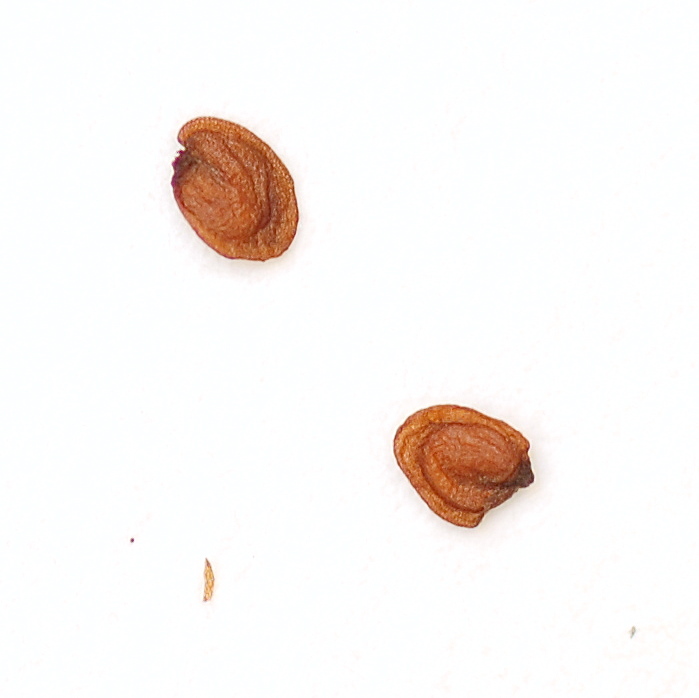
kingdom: Plantae
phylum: Tracheophyta
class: Magnoliopsida
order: Brassicales
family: Brassicaceae
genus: Arabis
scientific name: Arabis soyeri
